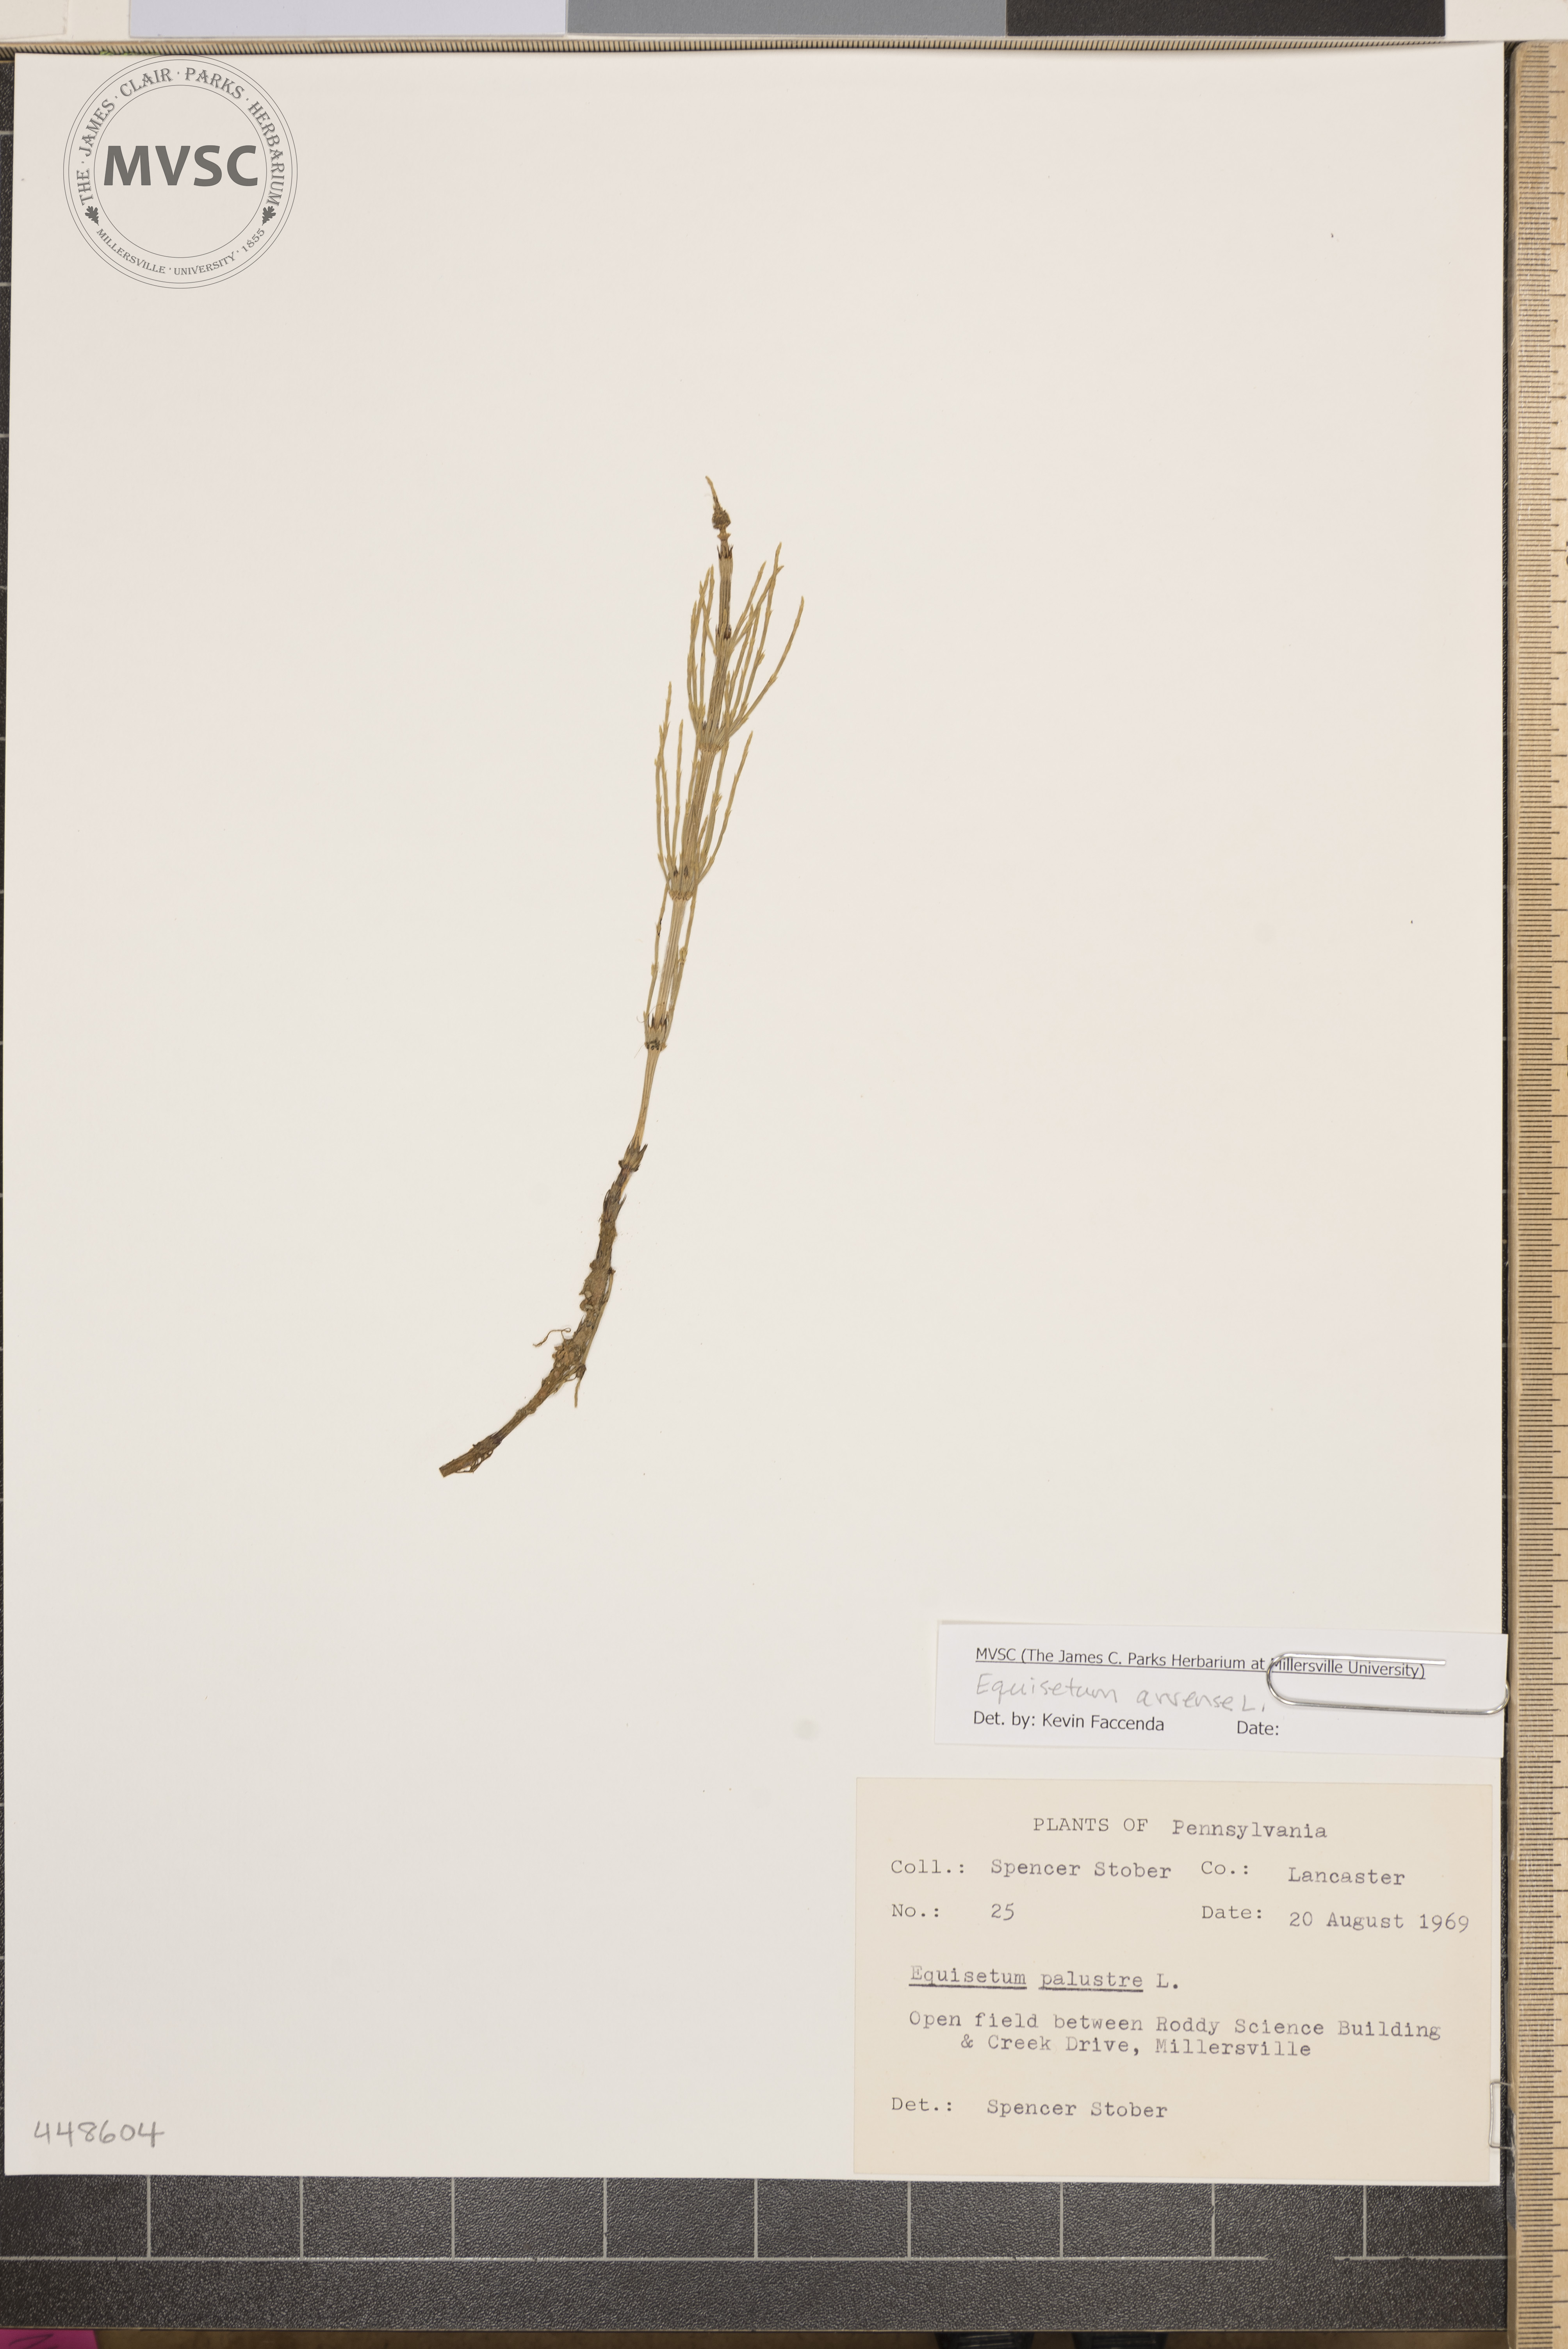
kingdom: Plantae
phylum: Tracheophyta
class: Polypodiopsida
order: Equisetales
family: Equisetaceae
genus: Equisetum
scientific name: Equisetum palustre
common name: Marsh horsetail
